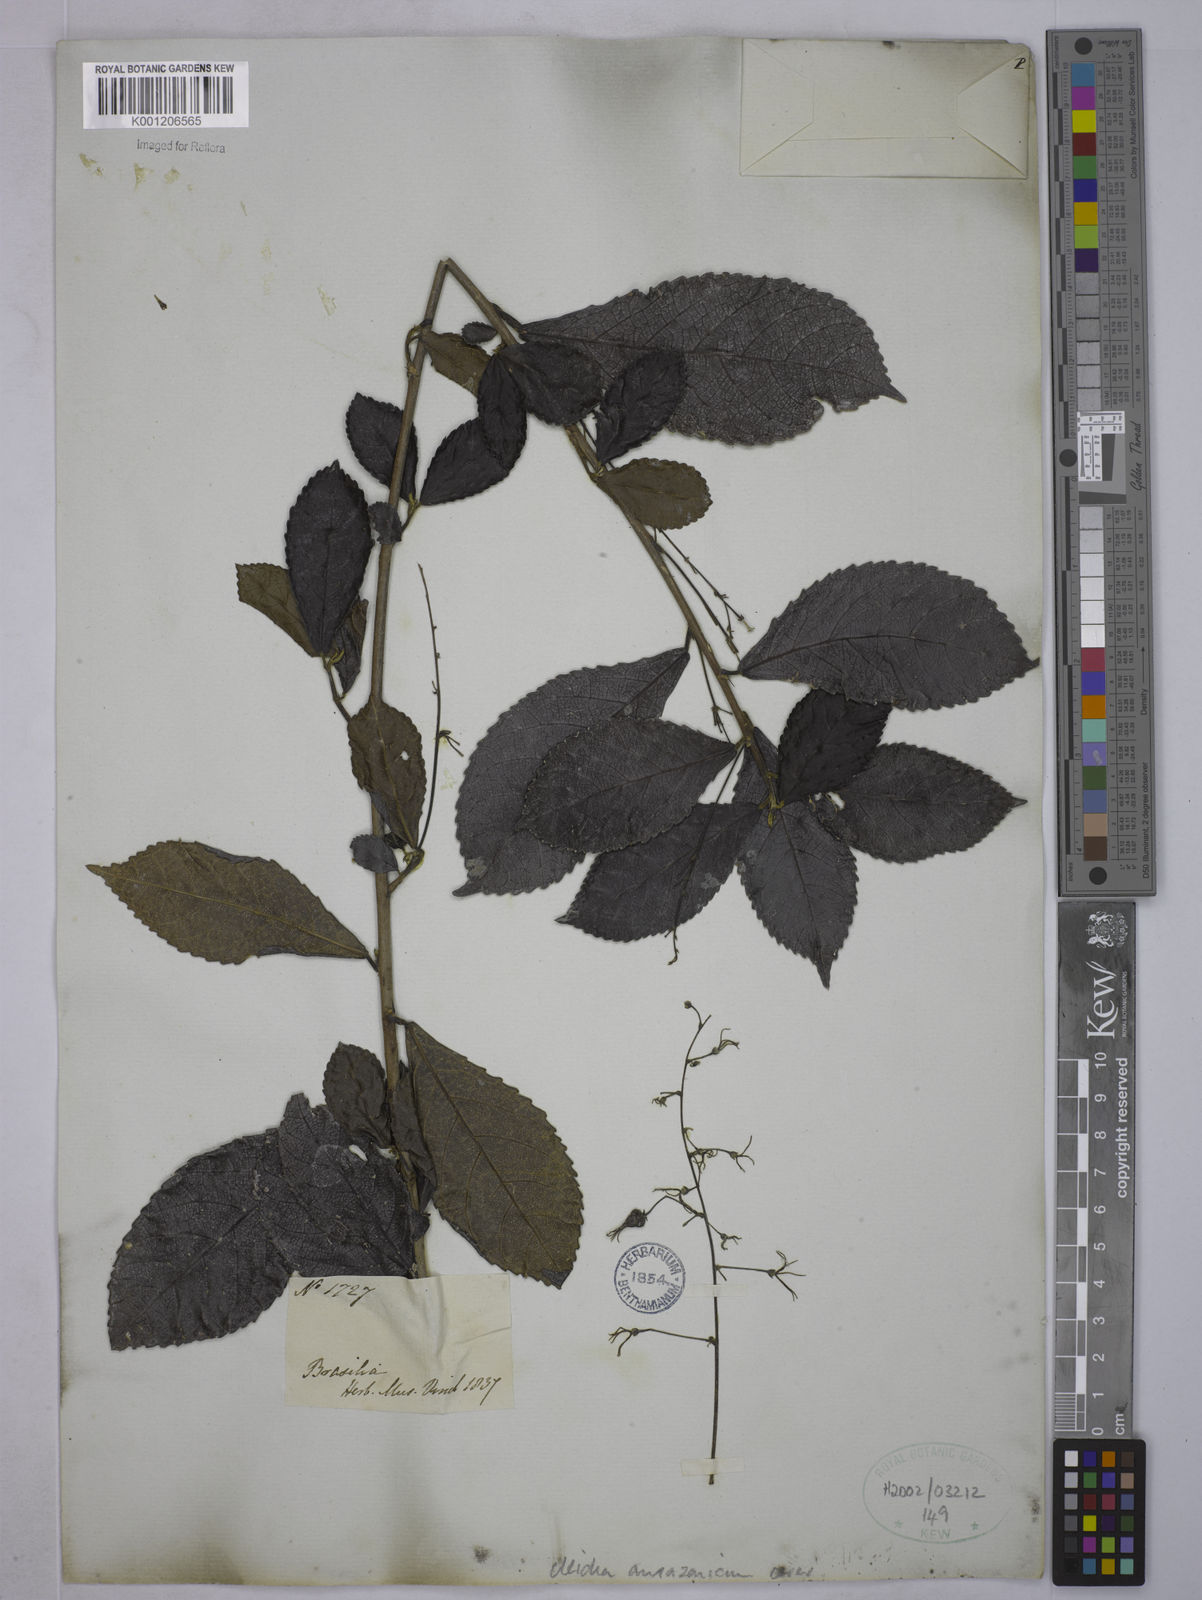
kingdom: Plantae
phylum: Tracheophyta
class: Magnoliopsida
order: Malpighiales
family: Euphorbiaceae
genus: Cleidion
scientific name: Cleidion amazonicum
